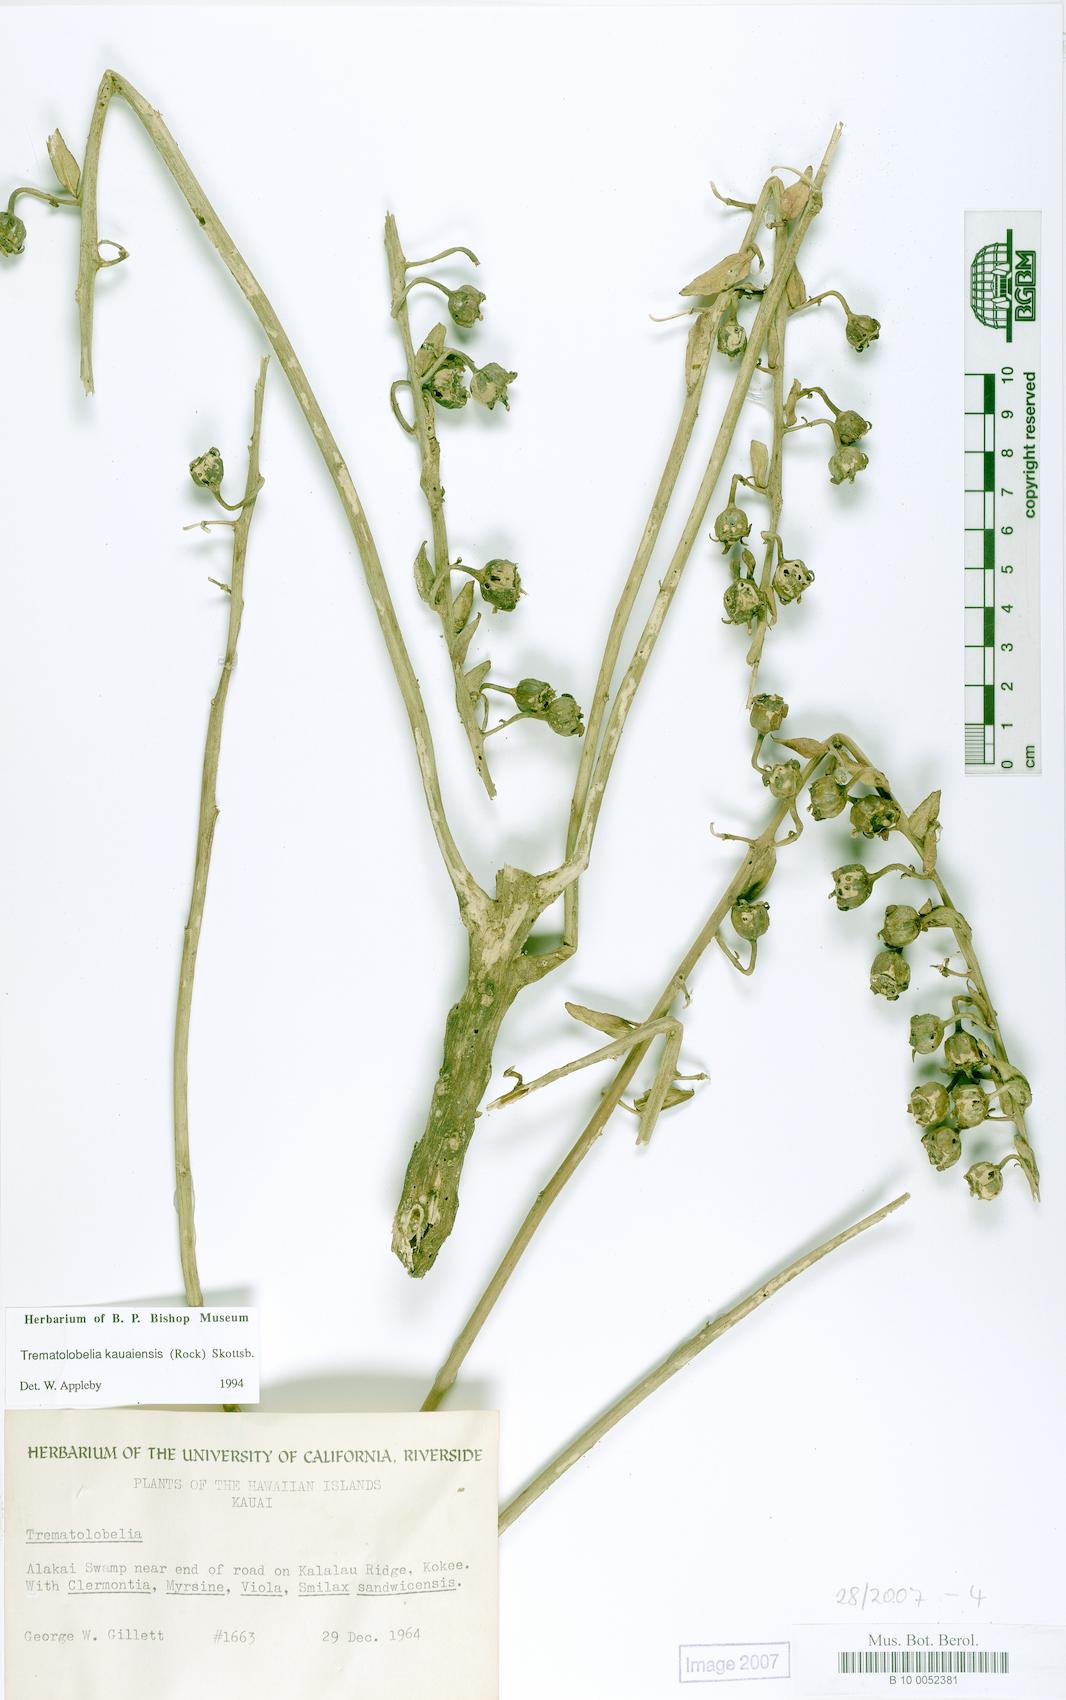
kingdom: Plantae
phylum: Tracheophyta
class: Magnoliopsida
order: Asterales
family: Campanulaceae
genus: Trematolobelia
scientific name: Trematolobelia kauaiensis
